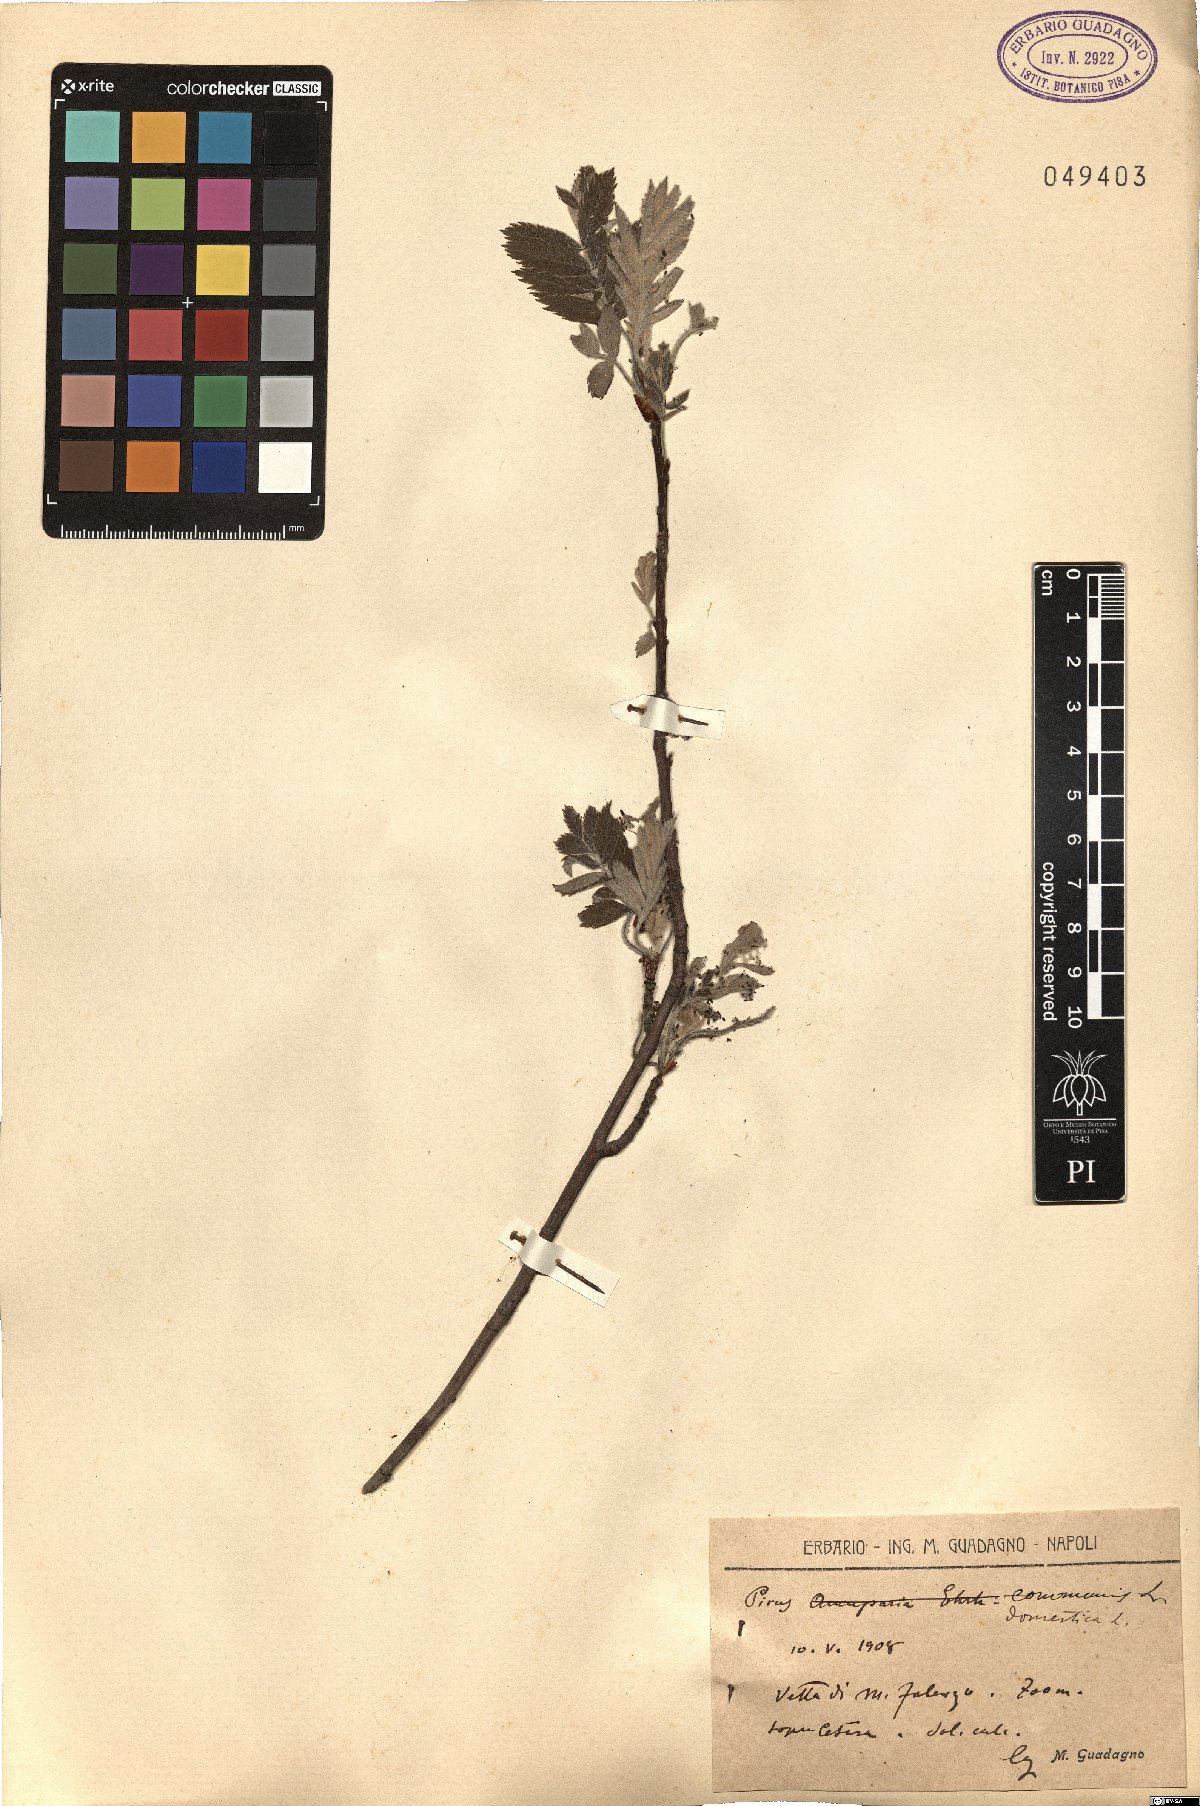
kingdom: Plantae
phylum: Tracheophyta
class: Magnoliopsida
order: Rosales
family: Rosaceae
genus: Cormus
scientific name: Cormus domestica
